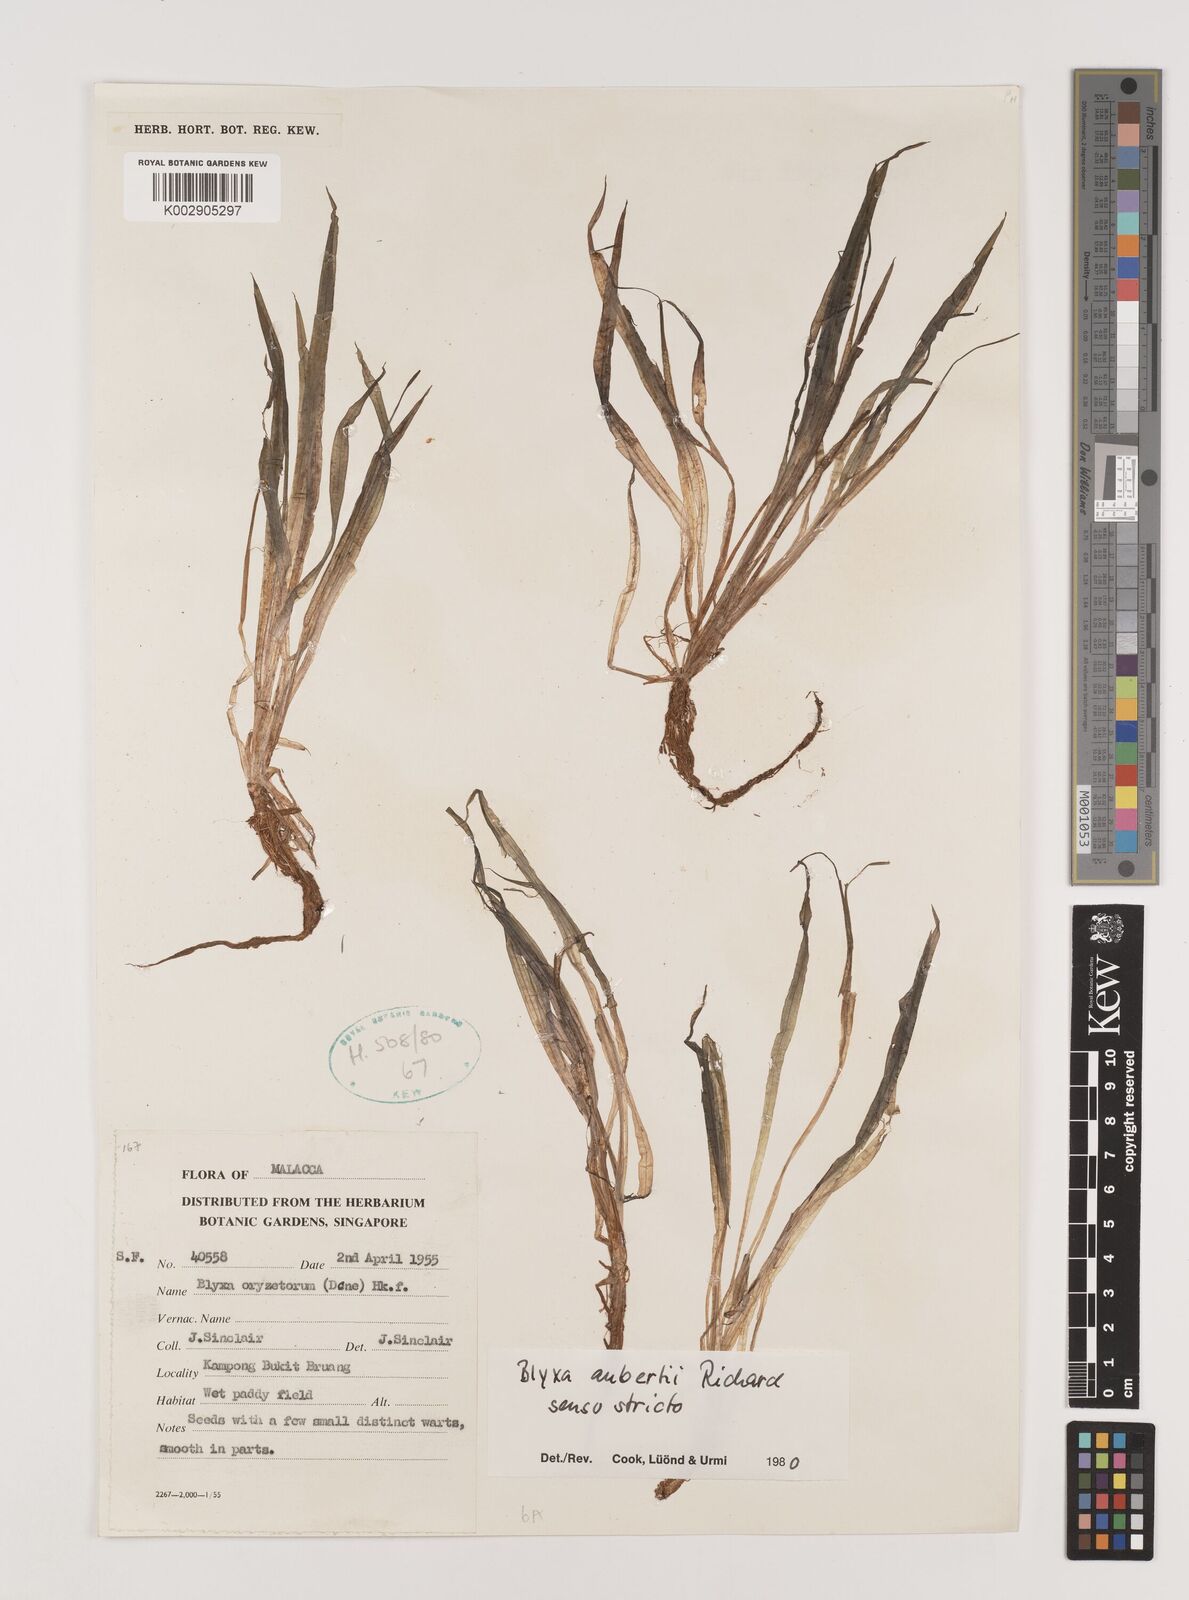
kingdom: Plantae
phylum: Tracheophyta
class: Liliopsida
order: Alismatales
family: Hydrocharitaceae
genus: Blyxa
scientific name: Blyxa aubertii
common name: Roundfruit blyxa
